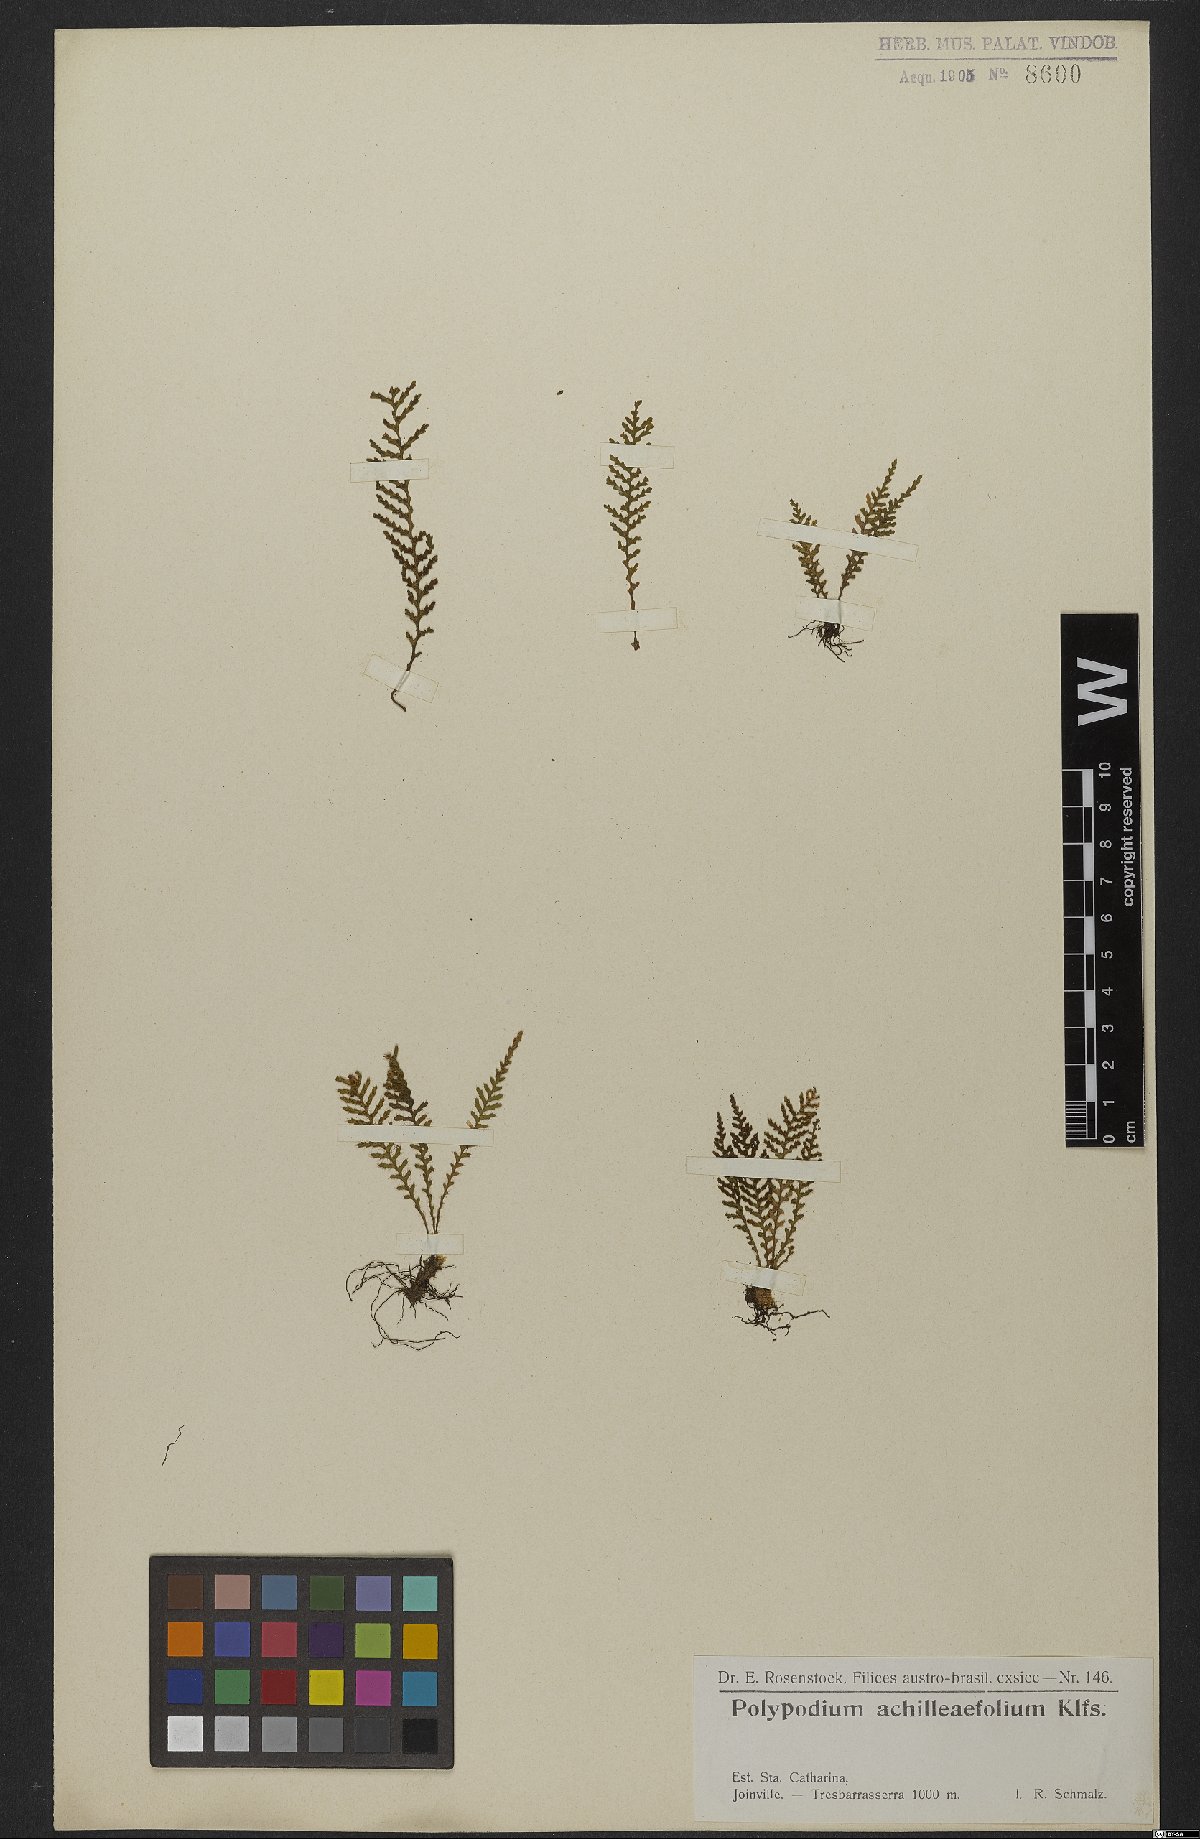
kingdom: Plantae
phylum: Tracheophyta
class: Polypodiopsida
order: Polypodiales
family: Polypodiaceae
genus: Moranopteris
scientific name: Moranopteris achilleifolia
